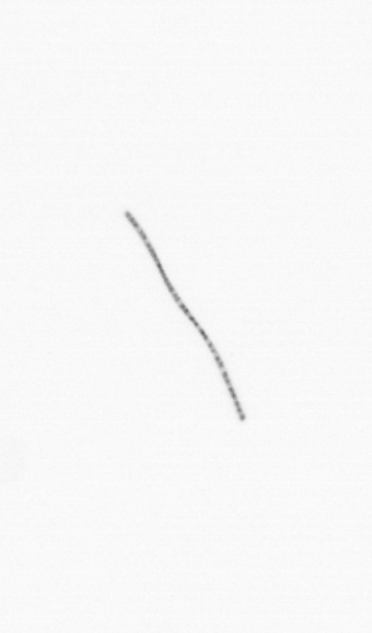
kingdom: Chromista
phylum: Ochrophyta
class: Bacillariophyceae
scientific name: Bacillariophyceae
